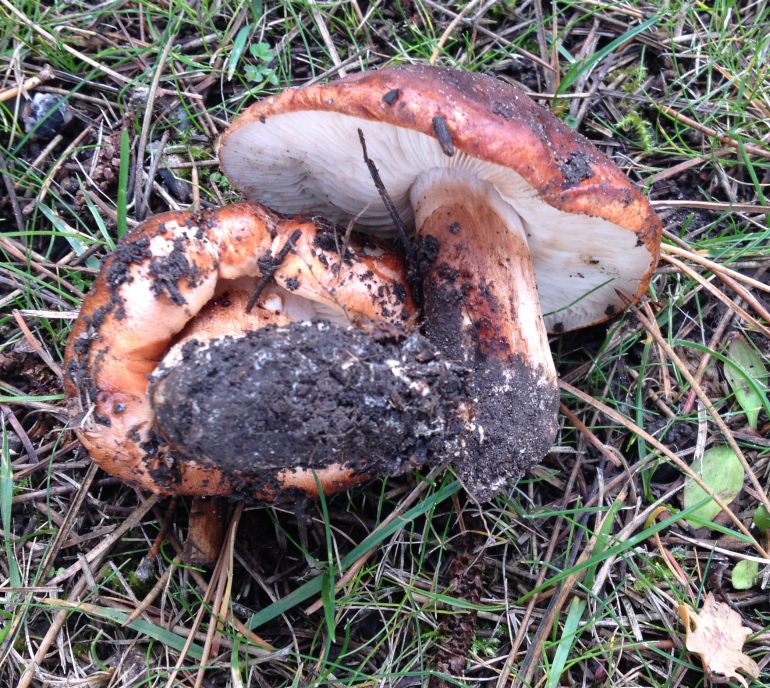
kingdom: Fungi
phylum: Basidiomycota
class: Agaricomycetes
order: Agaricales
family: Tricholomataceae
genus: Tricholoma
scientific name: Tricholoma fracticum
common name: hvidhalset ridderhat
